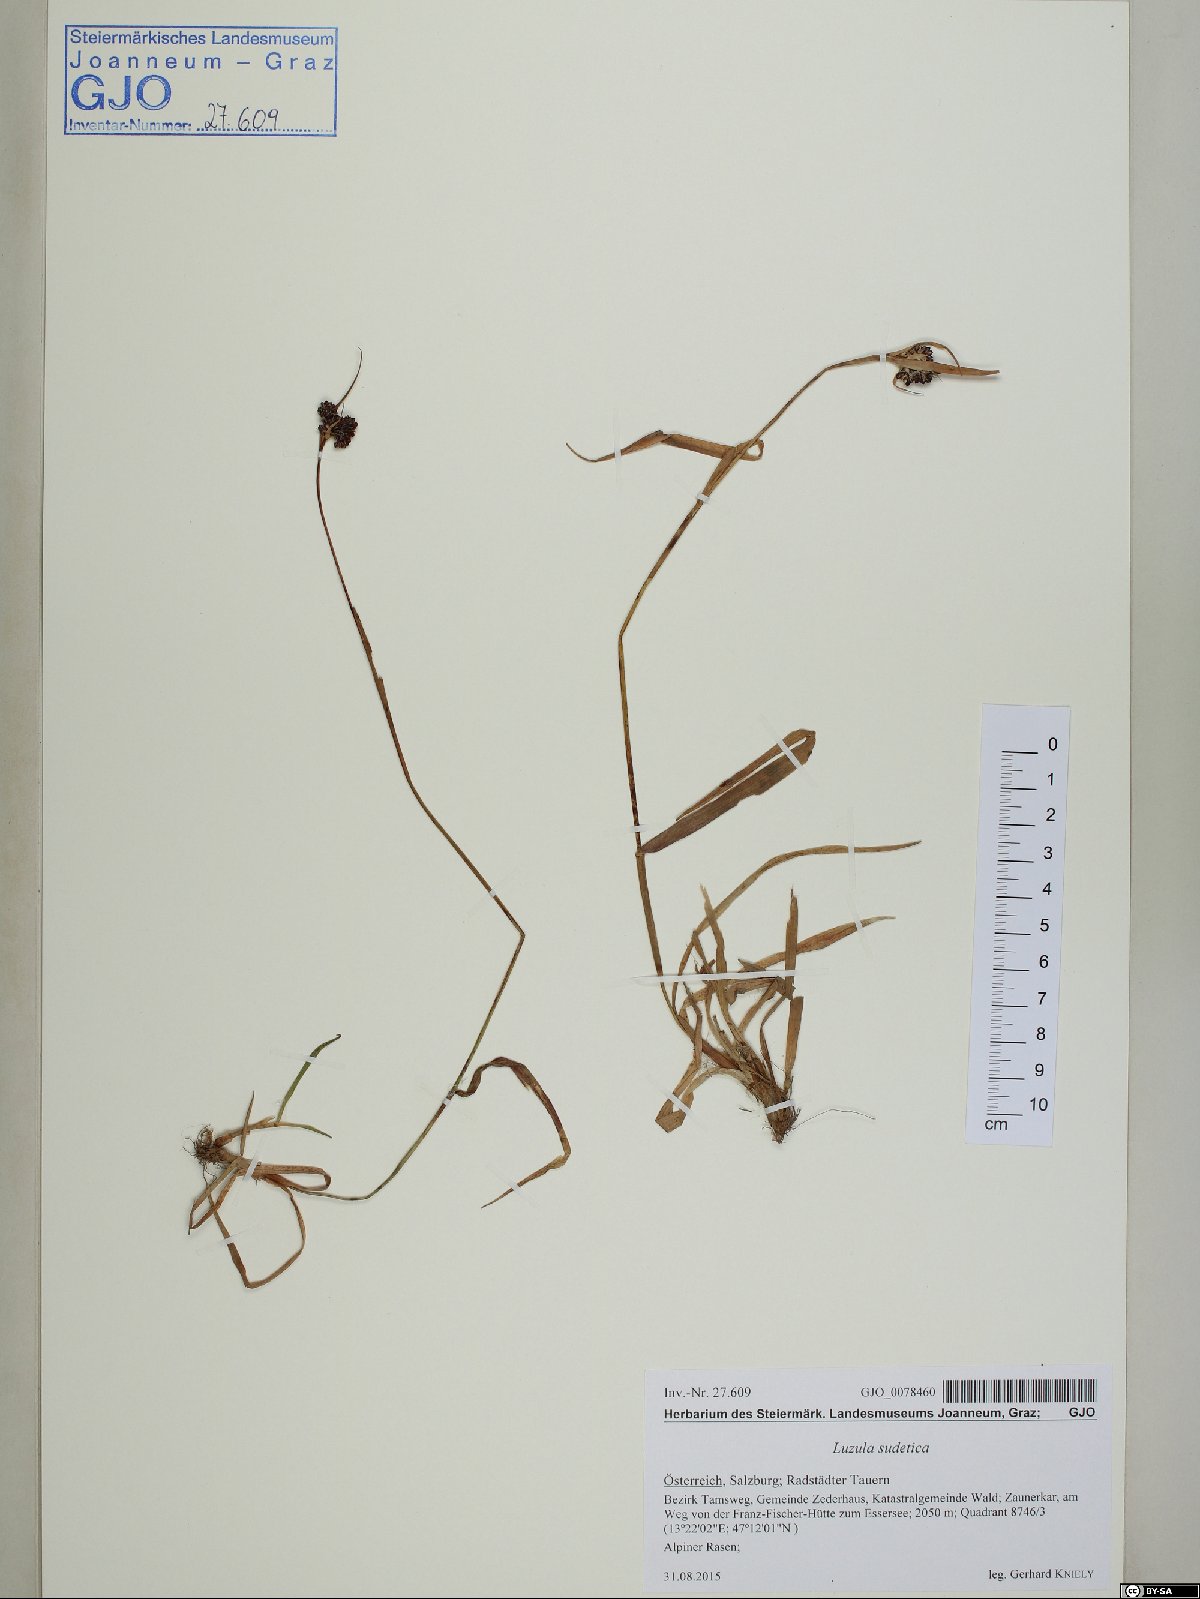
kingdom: Plantae
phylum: Tracheophyta
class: Liliopsida
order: Poales
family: Juncaceae
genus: Luzula
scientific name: Luzula sudetica
